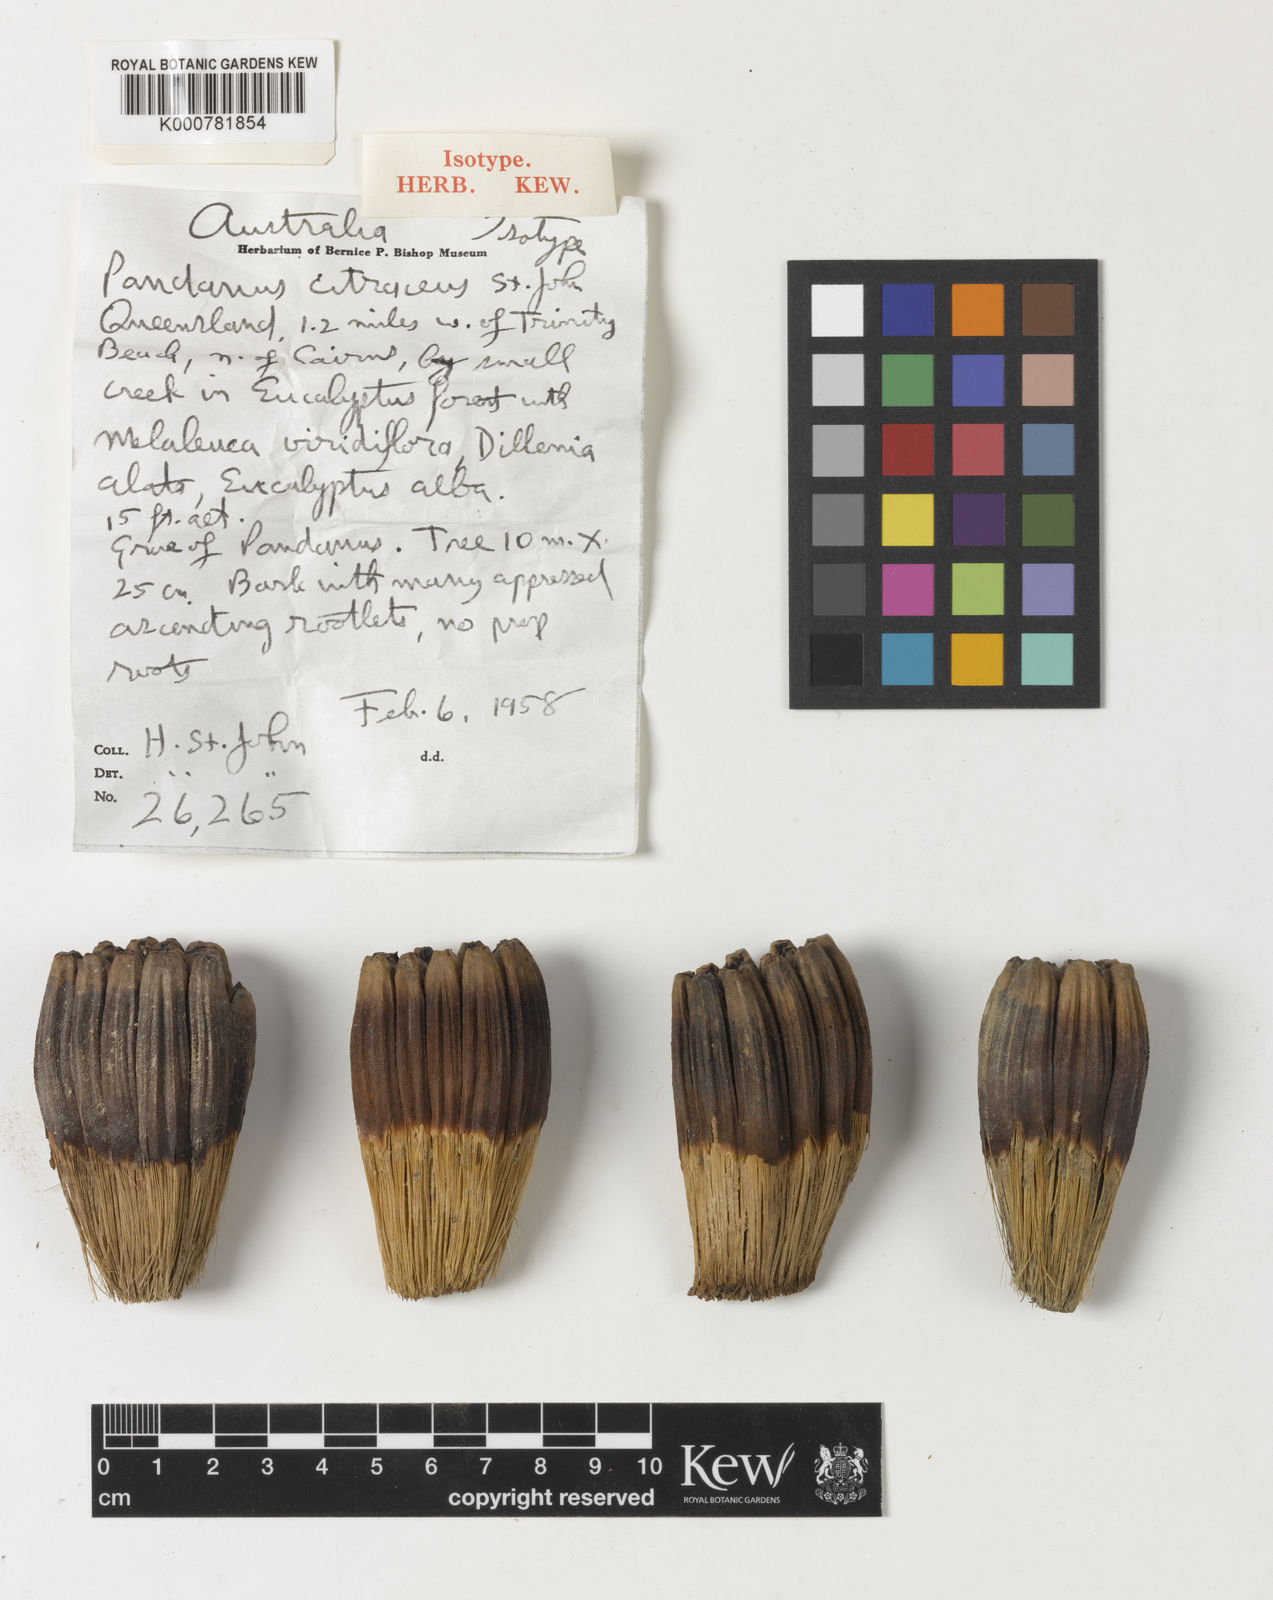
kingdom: Plantae
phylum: Tracheophyta
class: Liliopsida
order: Pandanales
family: Pandanaceae
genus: Pandanus
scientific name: Pandanus solms-laubachii
